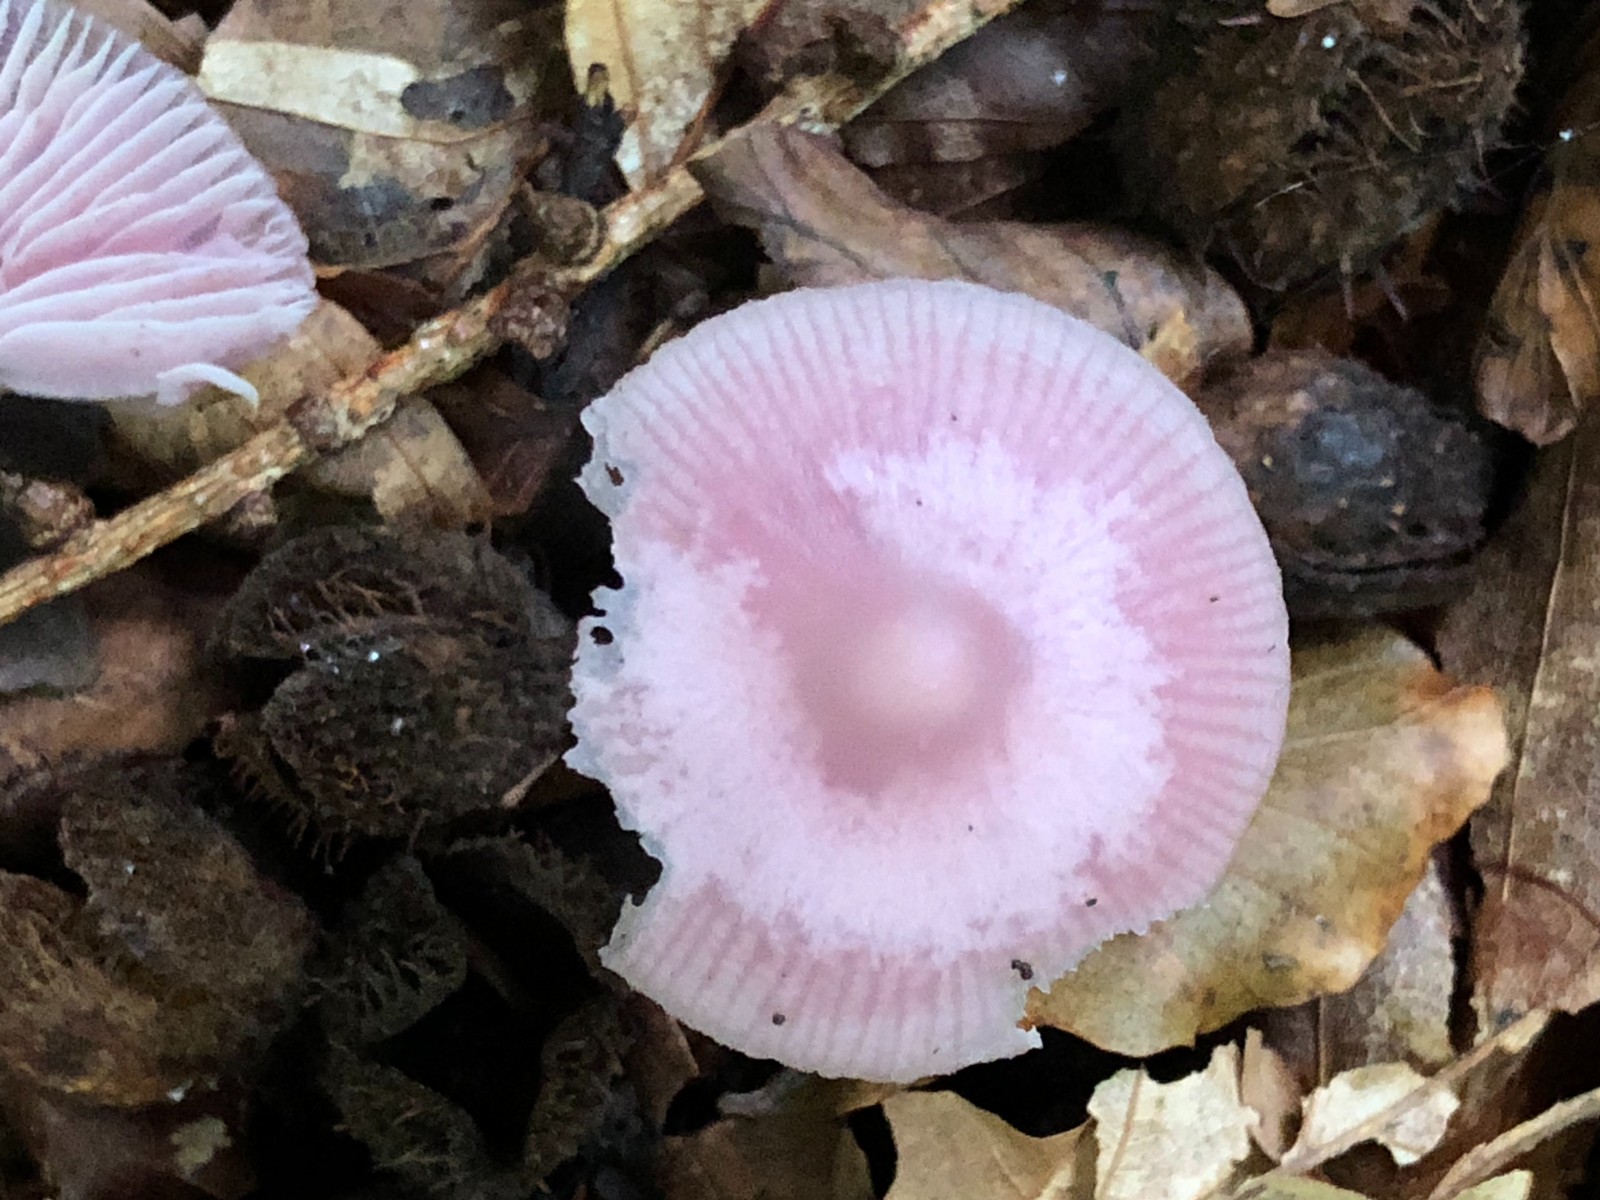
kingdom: Fungi
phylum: Basidiomycota
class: Agaricomycetes
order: Agaricales
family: Mycenaceae
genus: Mycena
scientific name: Mycena rosea
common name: rosa huesvamp
